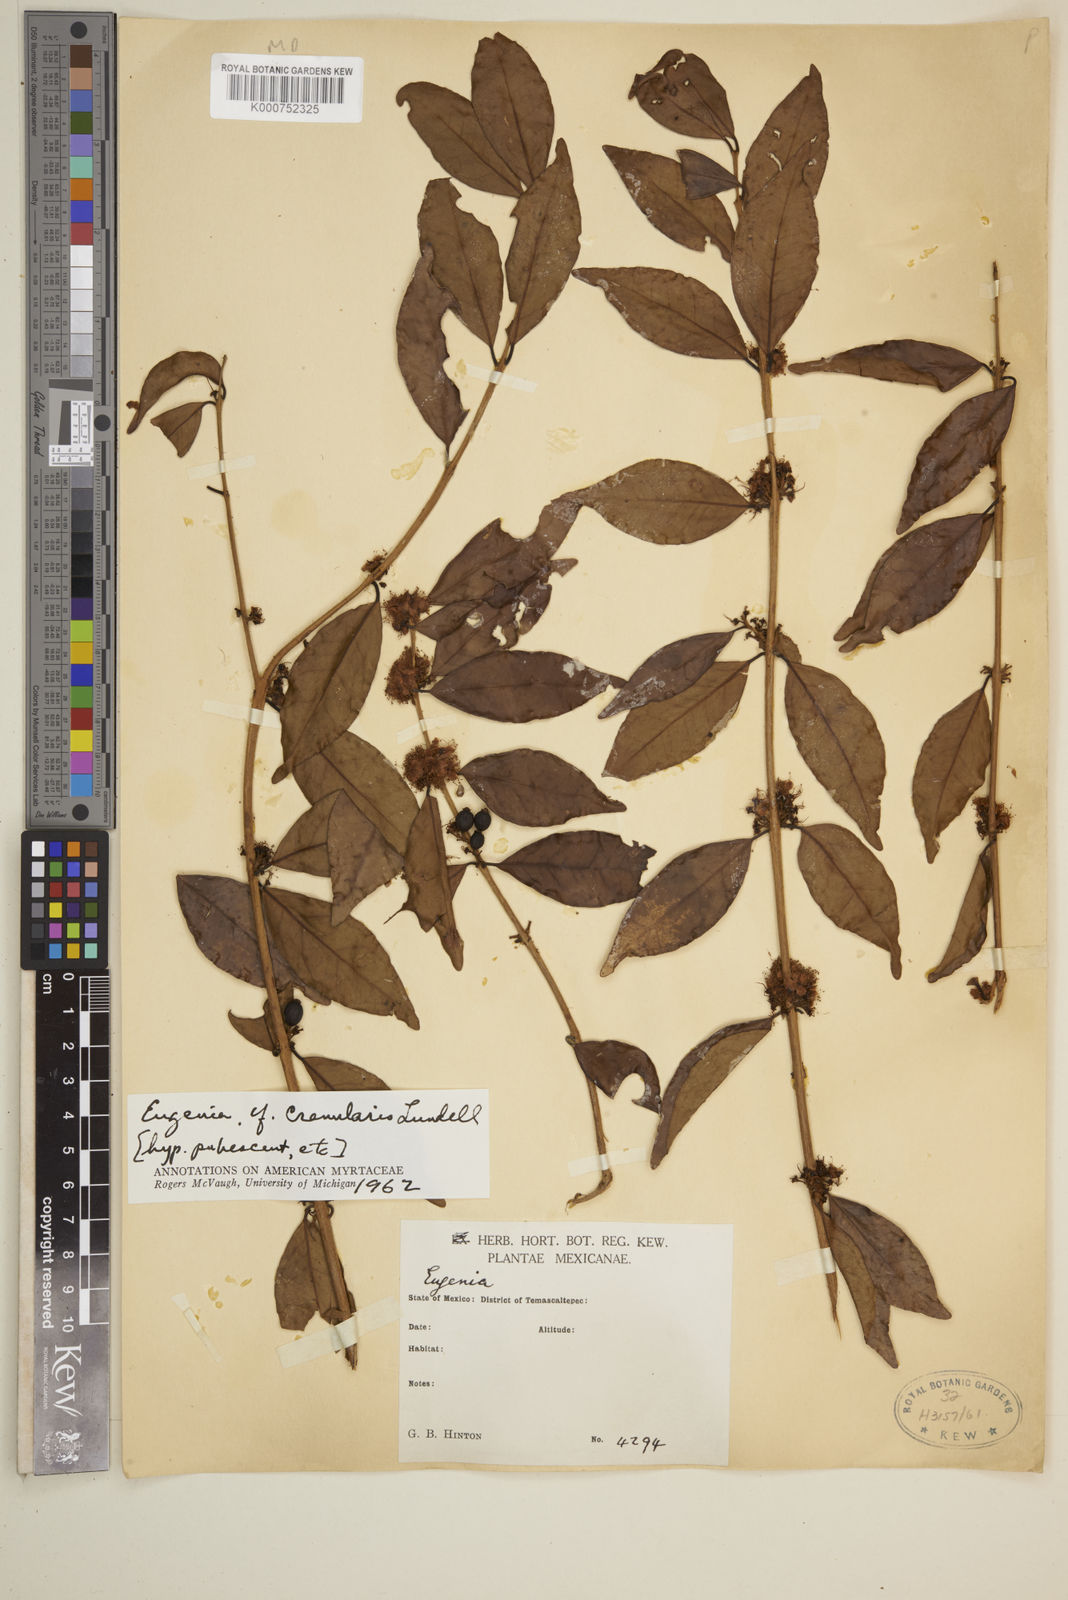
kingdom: Plantae
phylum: Tracheophyta
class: Magnoliopsida
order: Myrtales
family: Myrtaceae
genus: Eugenia
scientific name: Eugenia crenularis
